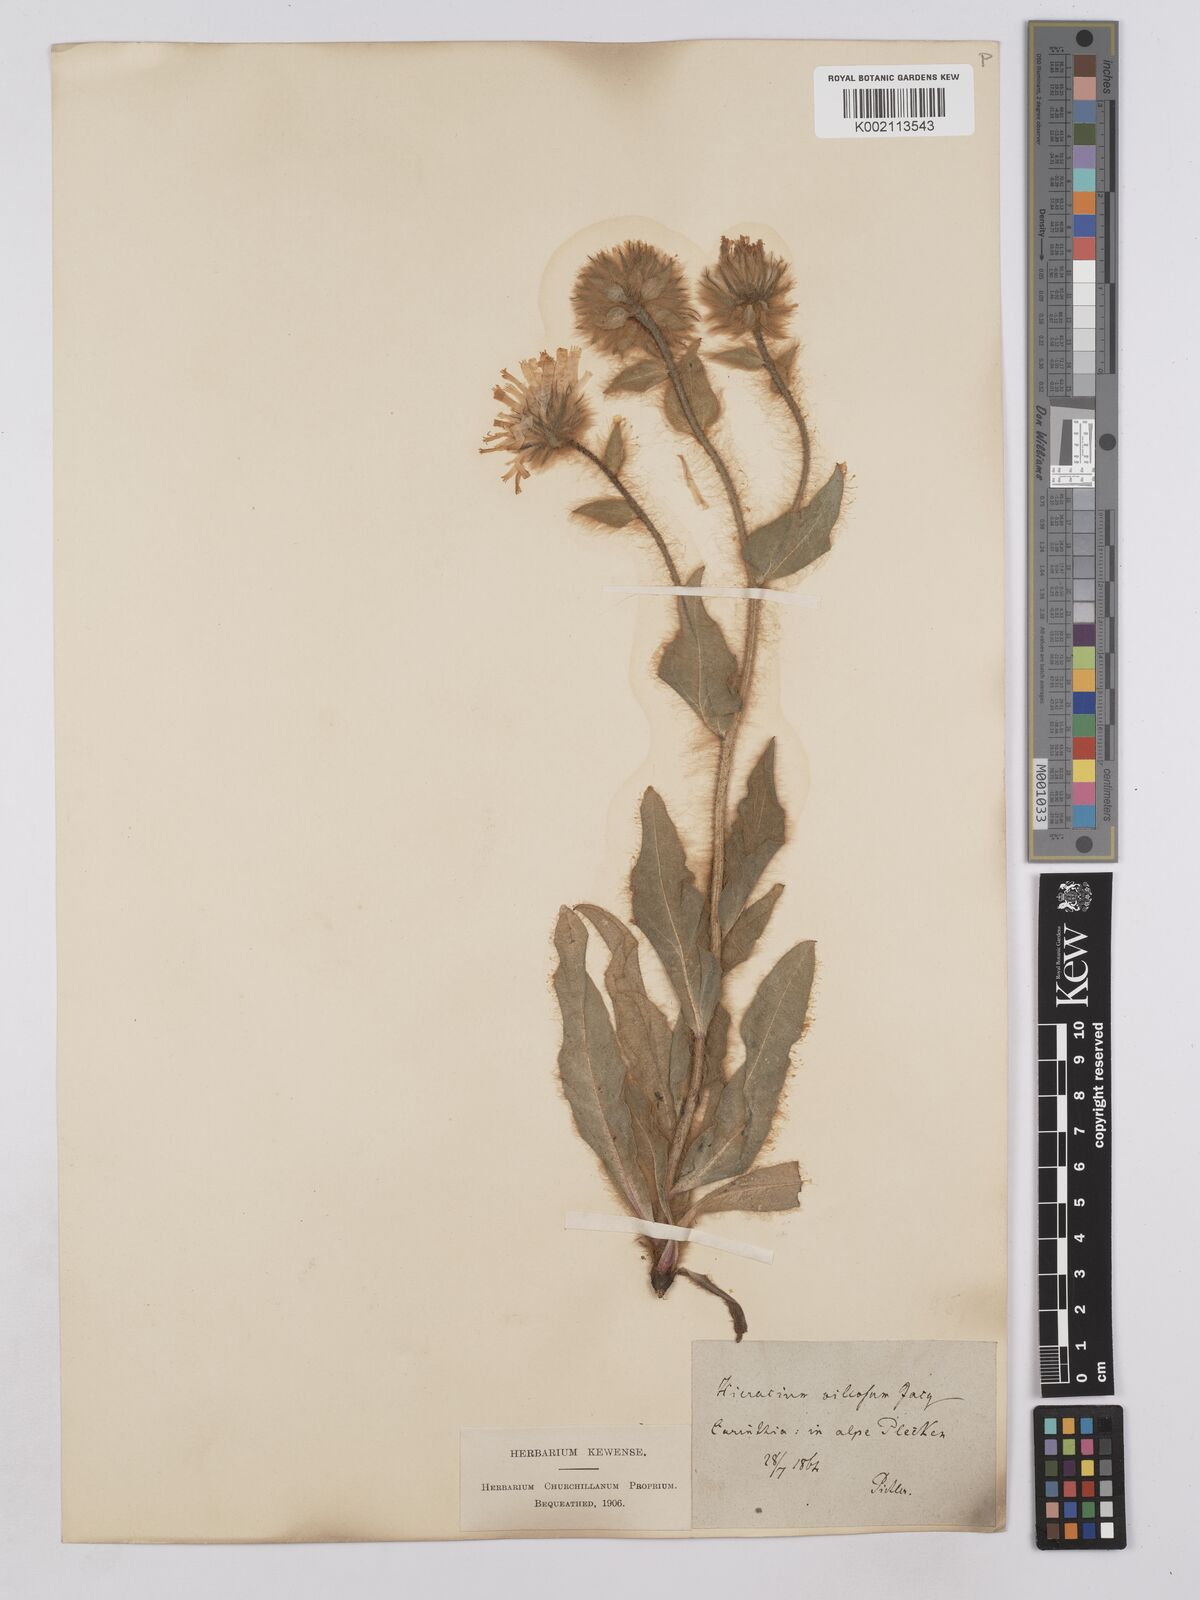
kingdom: Plantae
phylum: Tracheophyta
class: Magnoliopsida
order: Asterales
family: Asteraceae
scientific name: Asteraceae
